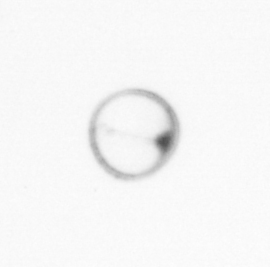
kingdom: Chromista
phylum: Myzozoa
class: Dinophyceae
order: Noctilucales
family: Noctilucaceae
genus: Noctiluca
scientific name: Noctiluca scintillans
